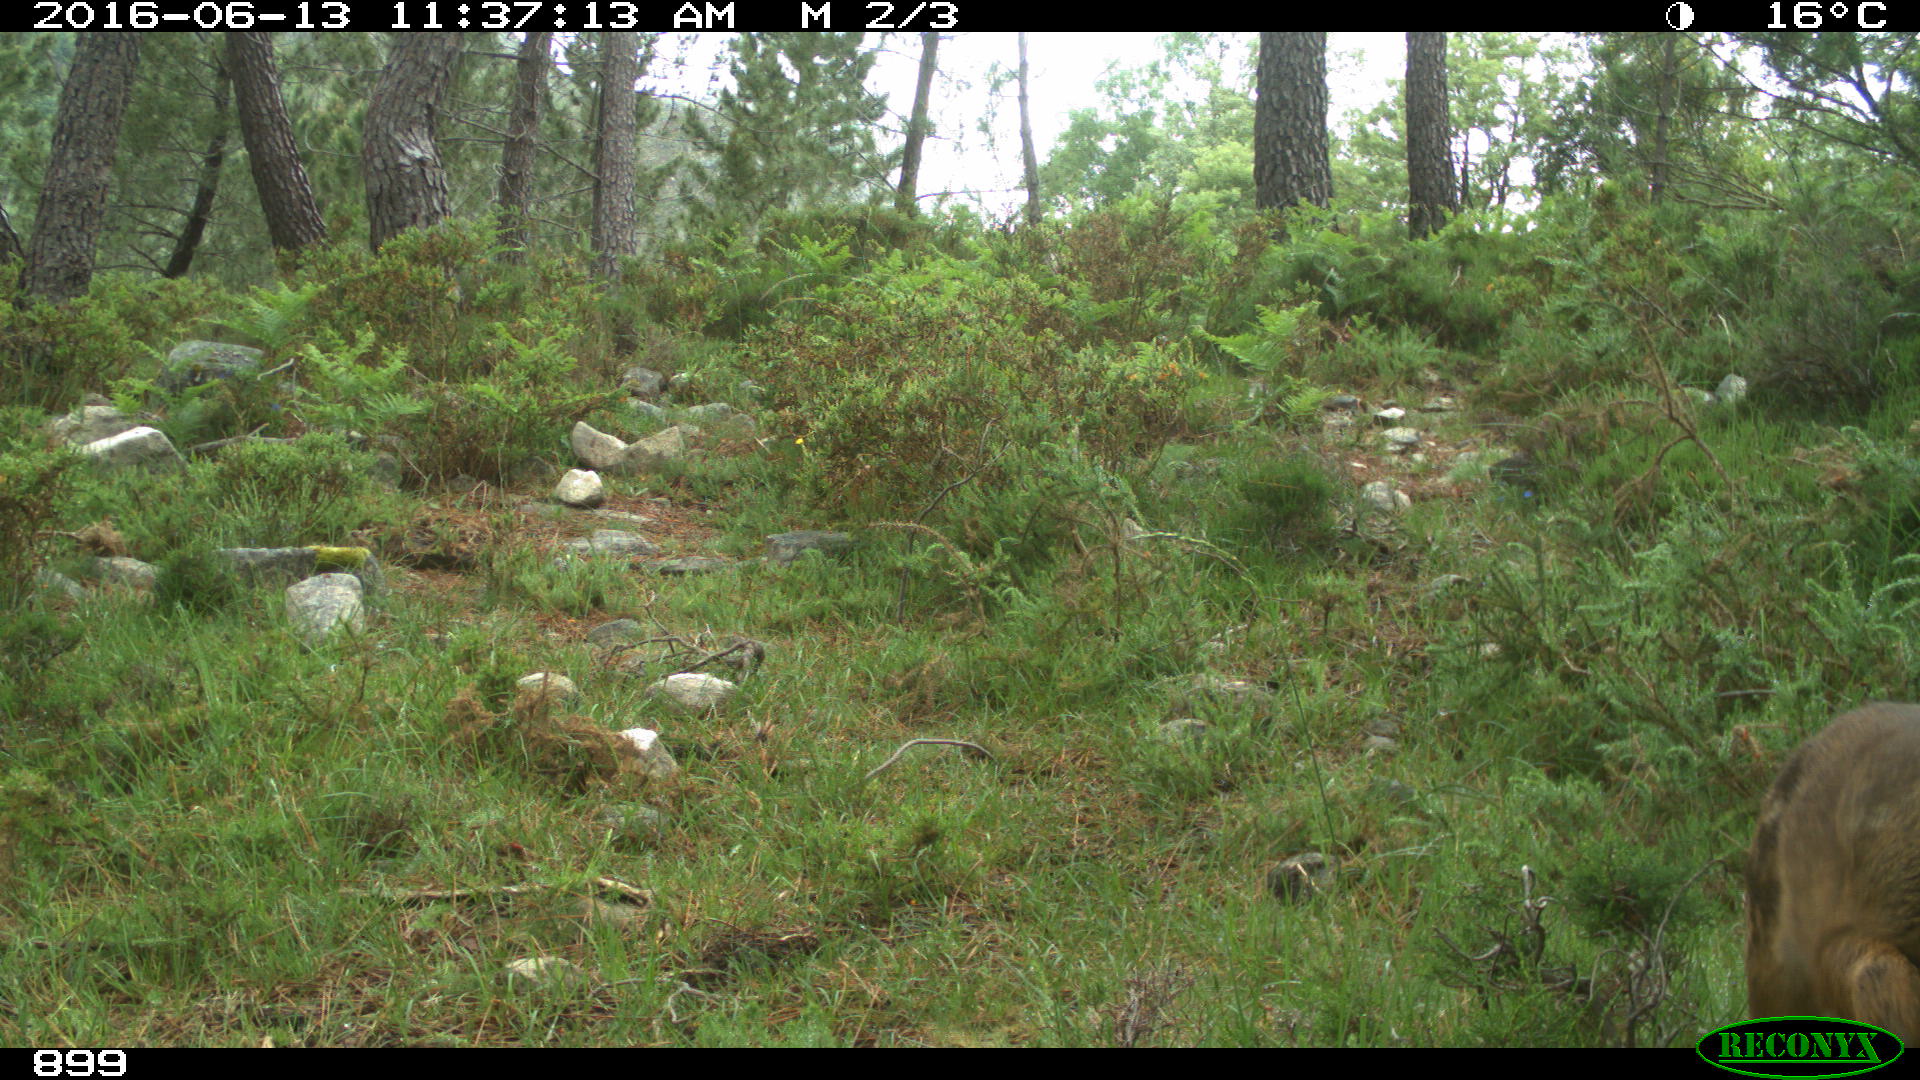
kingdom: Animalia
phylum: Chordata
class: Mammalia
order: Artiodactyla
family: Cervidae
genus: Capreolus
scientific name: Capreolus capreolus
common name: Western roe deer
